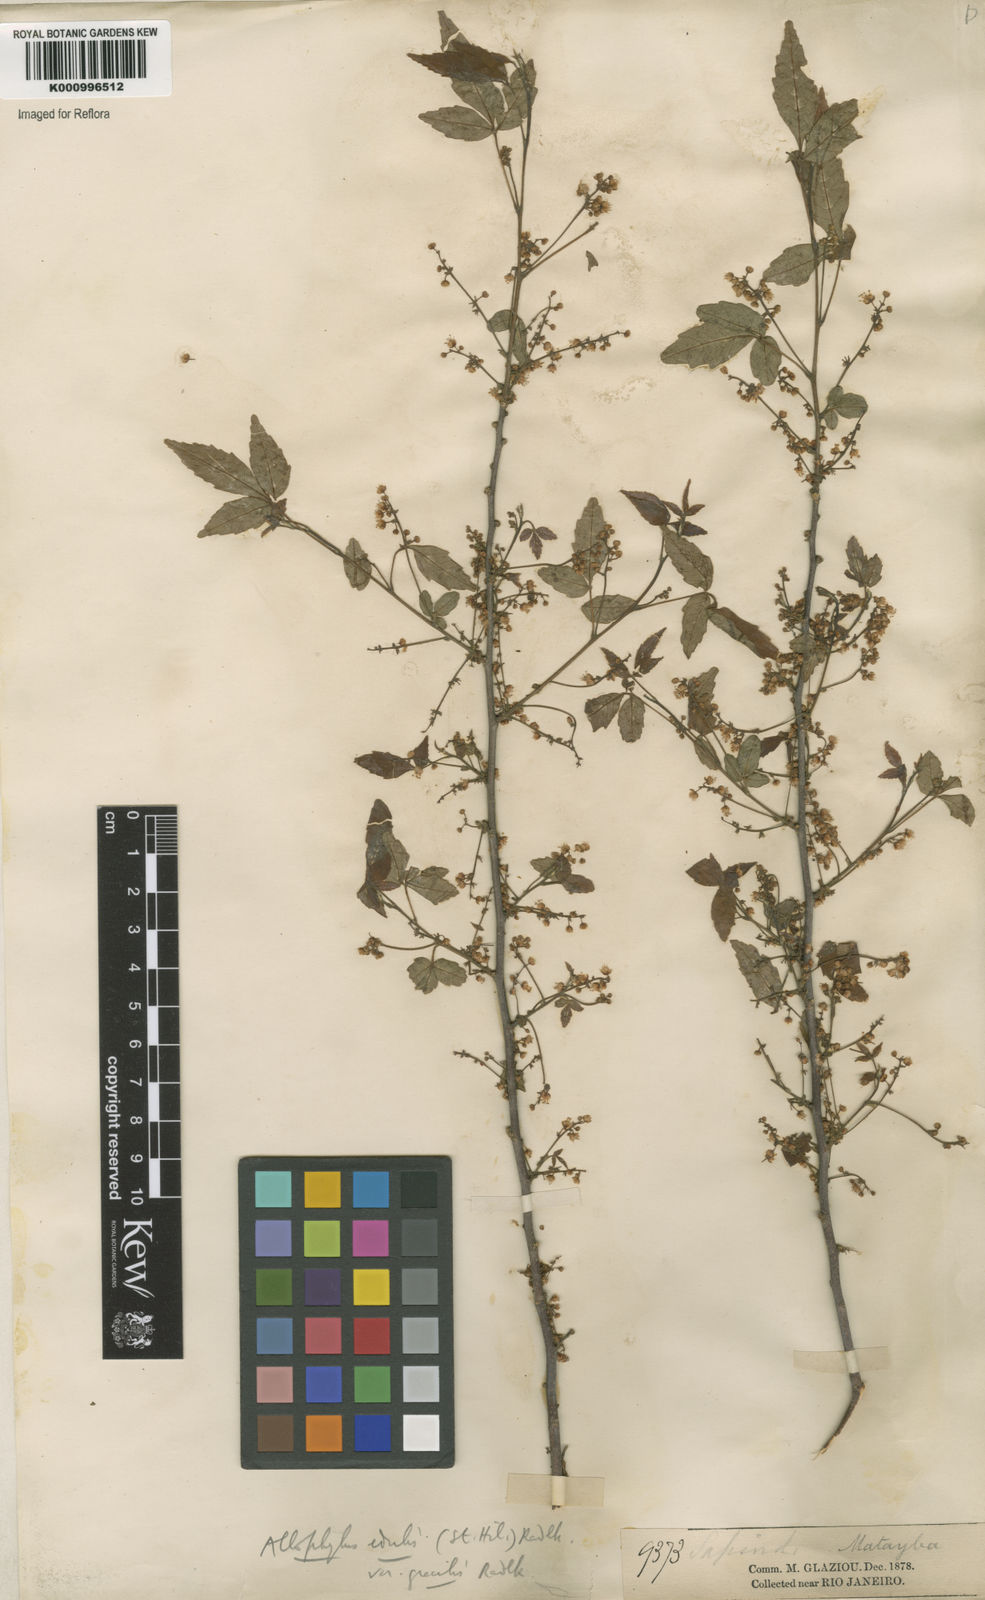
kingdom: Plantae
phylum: Tracheophyta
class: Magnoliopsida
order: Sapindales
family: Sapindaceae
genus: Allophylus
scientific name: Allophylus edulis
